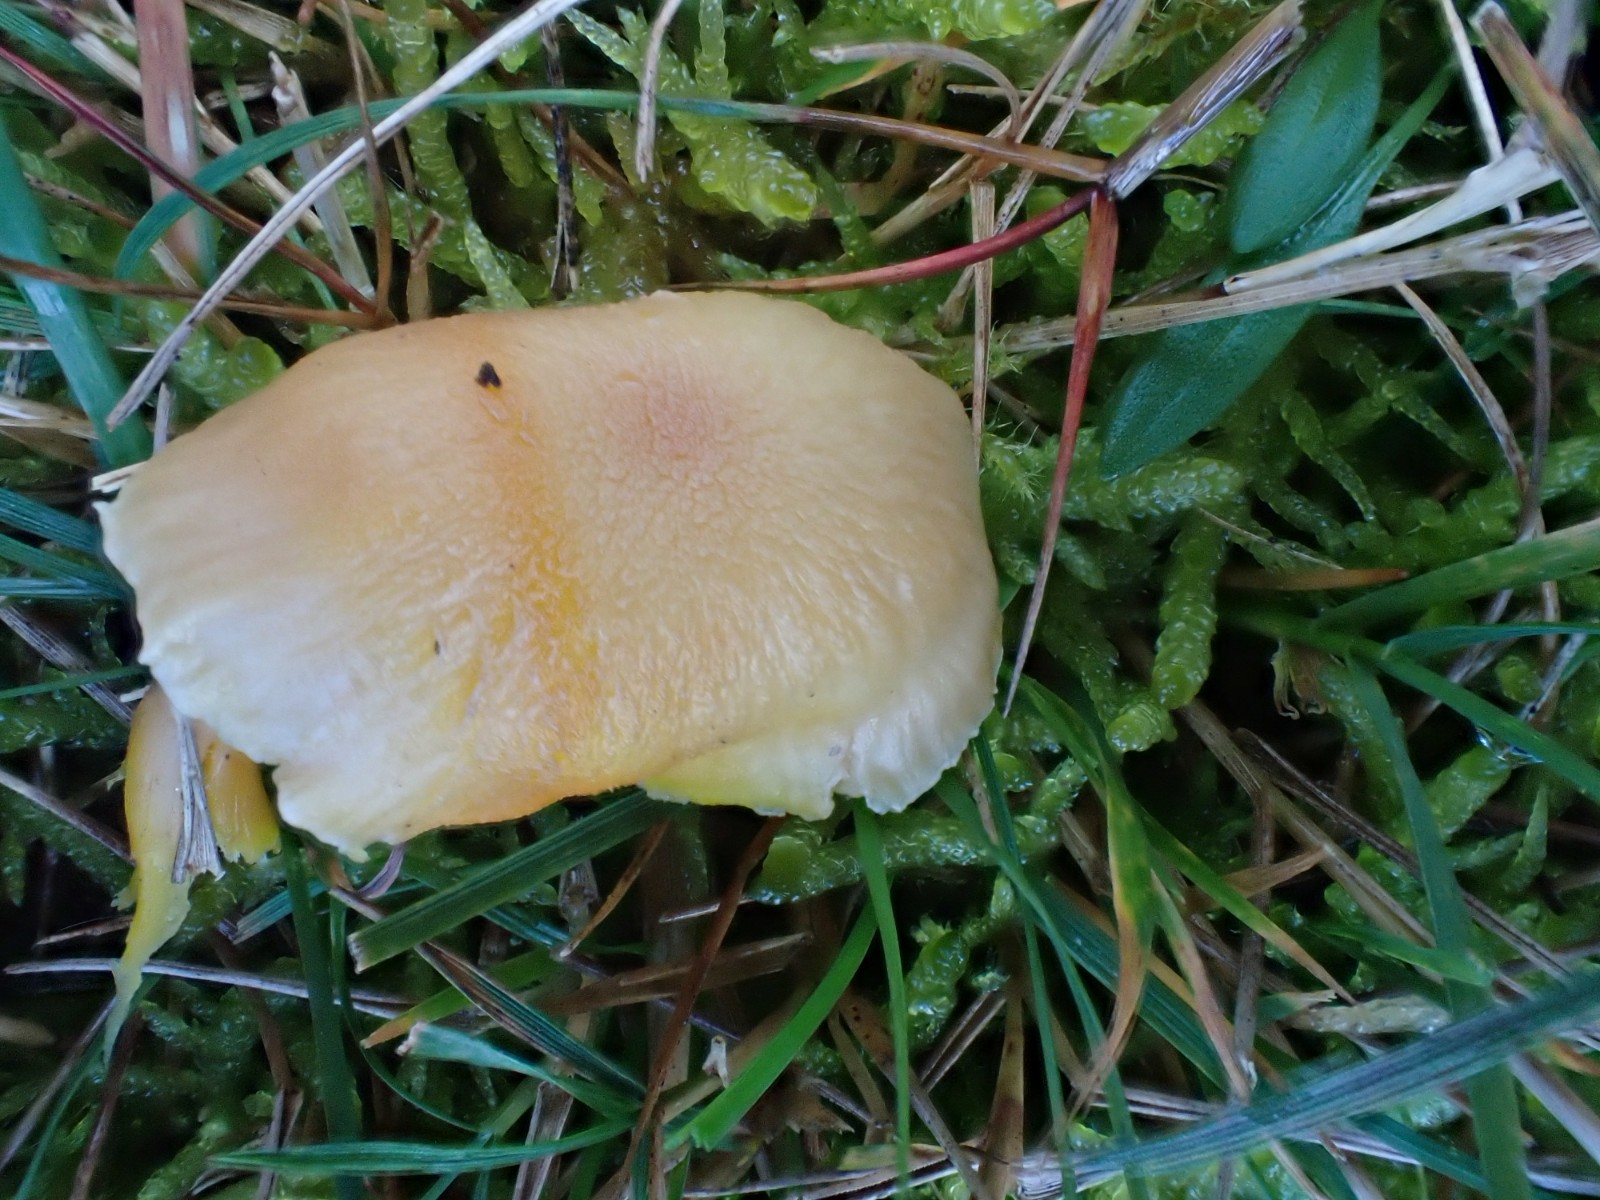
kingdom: Fungi
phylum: Basidiomycota
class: Agaricomycetes
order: Agaricales
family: Hygrophoraceae
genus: Hygrocybe
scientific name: Hygrocybe chlorophana
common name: gul vokshat
